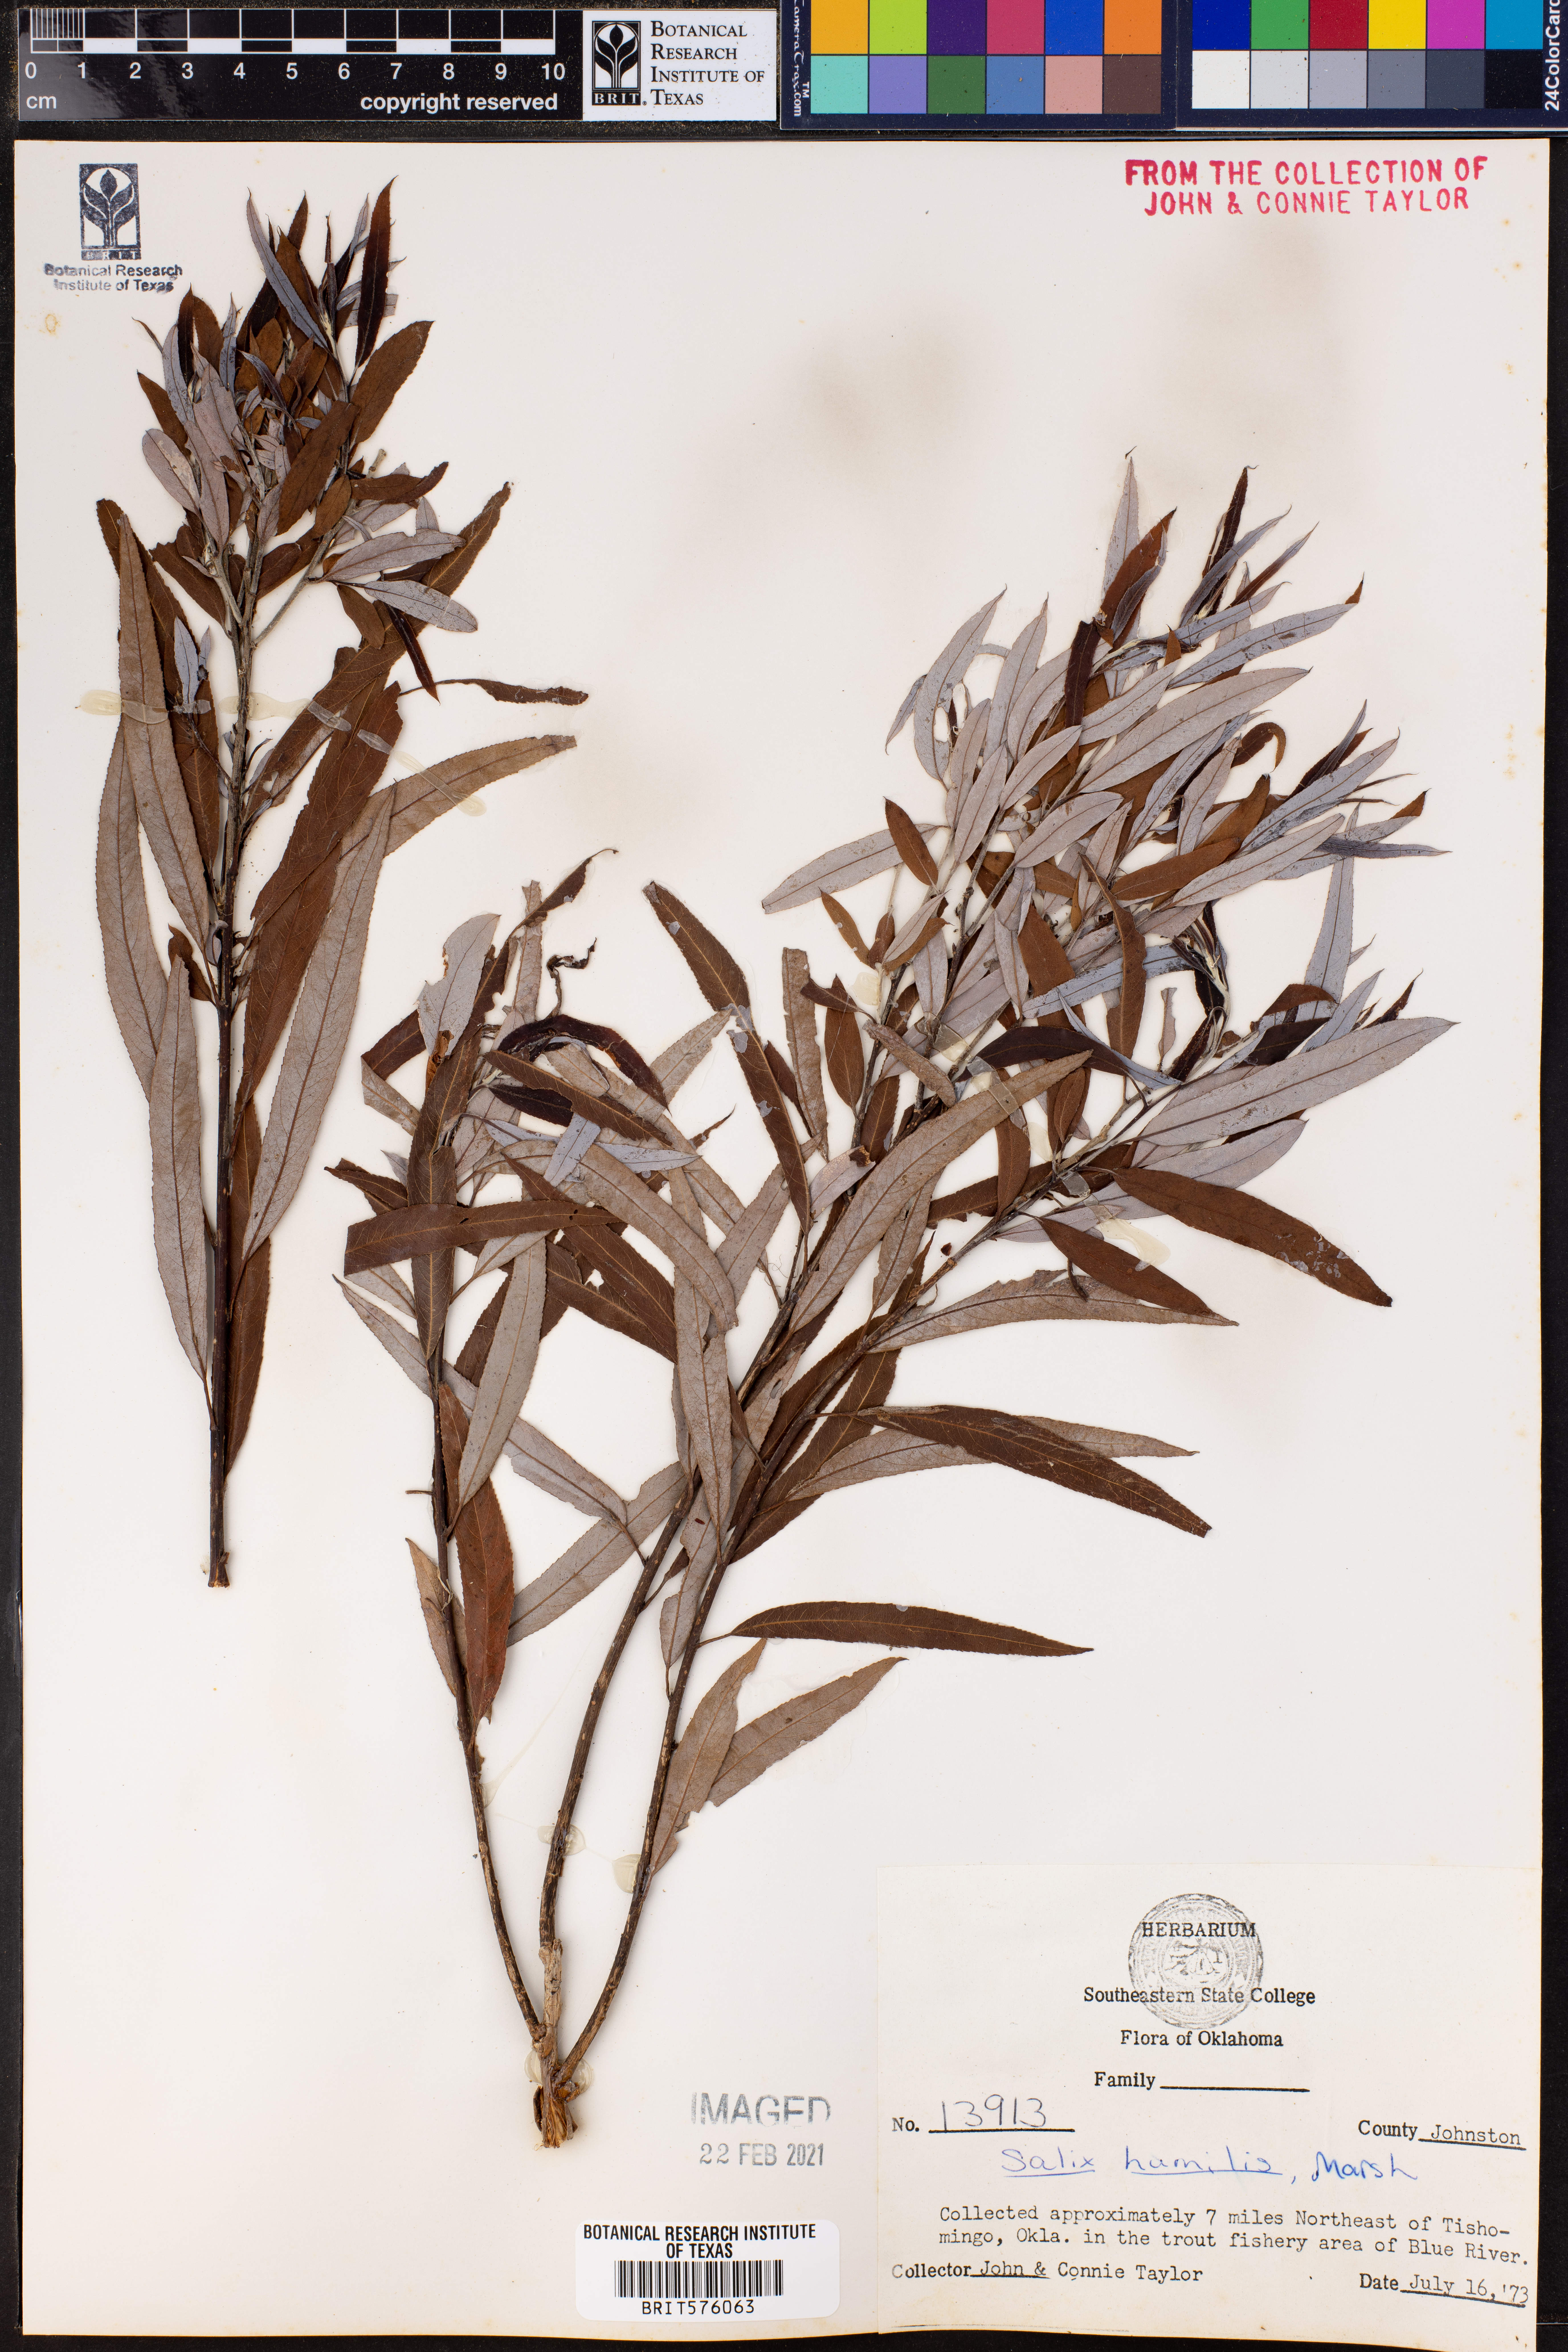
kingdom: Plantae
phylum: Tracheophyta
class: Magnoliopsida
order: Malpighiales
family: Salicaceae
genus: Salix
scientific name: Salix humilis
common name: Prairie willow
